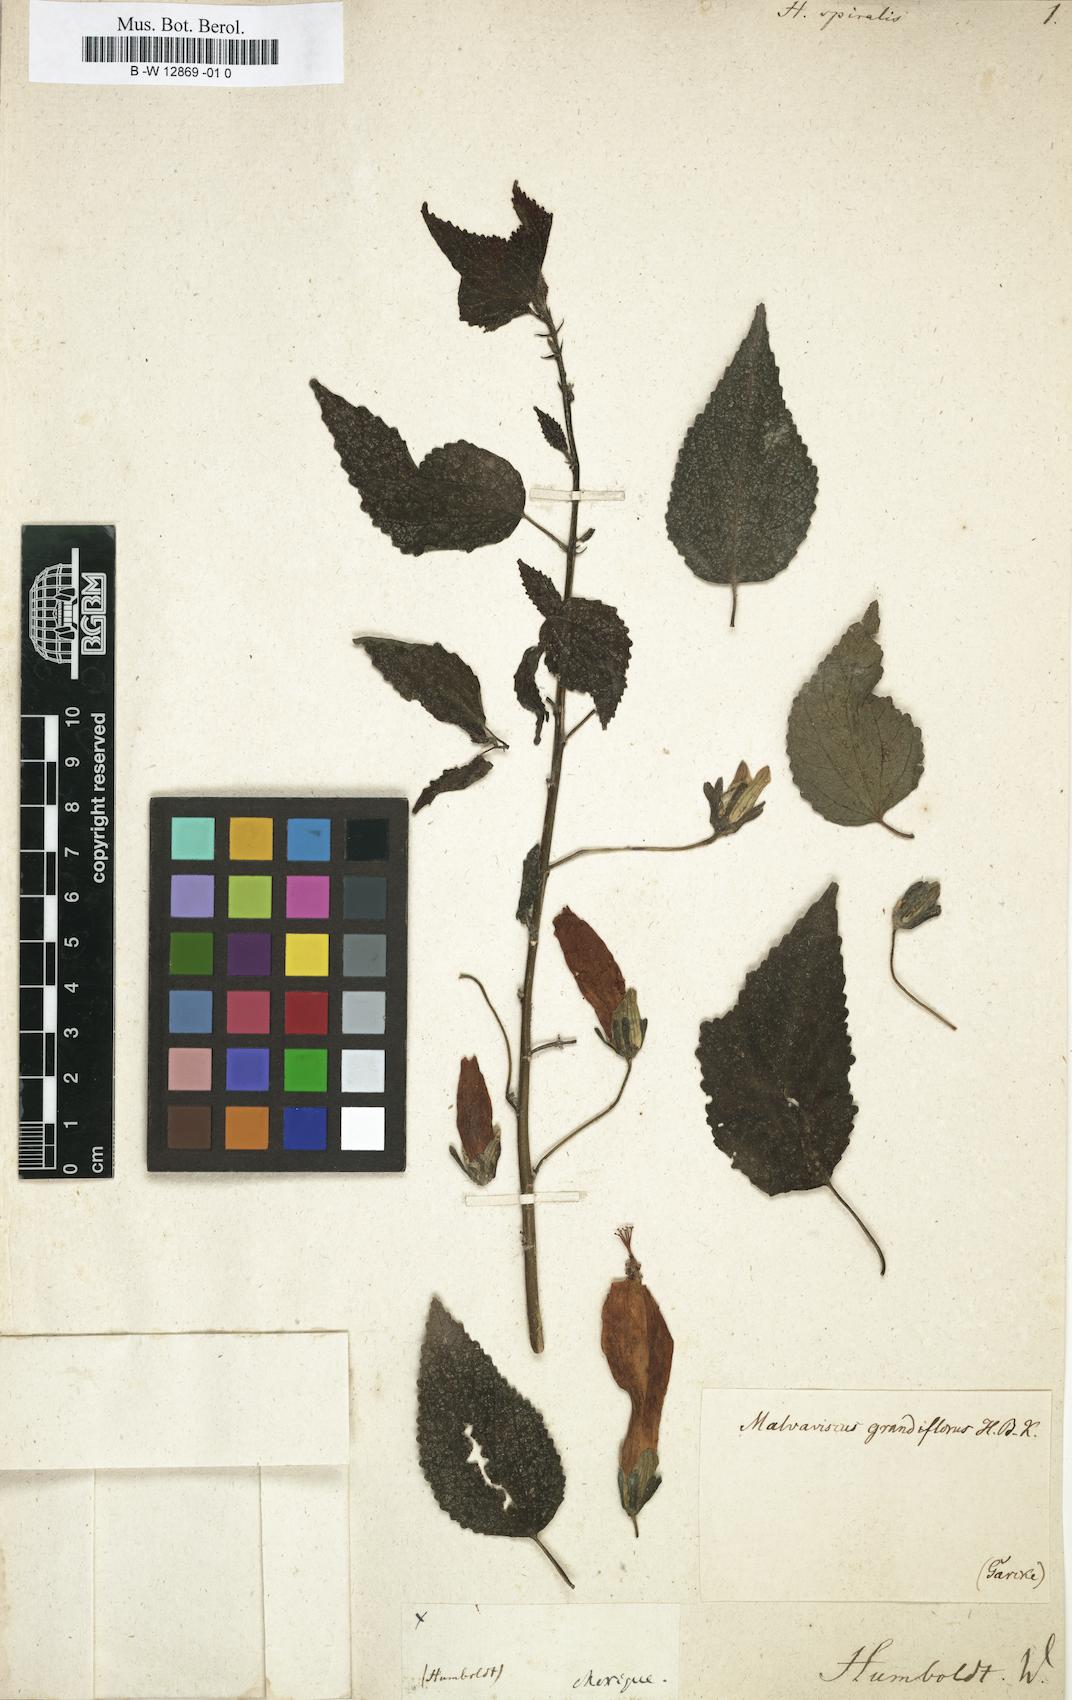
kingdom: Plantae
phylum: Tracheophyta
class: Magnoliopsida
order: Malvales
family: Malvaceae
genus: Hibiscus
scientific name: Hibiscus spiralis
